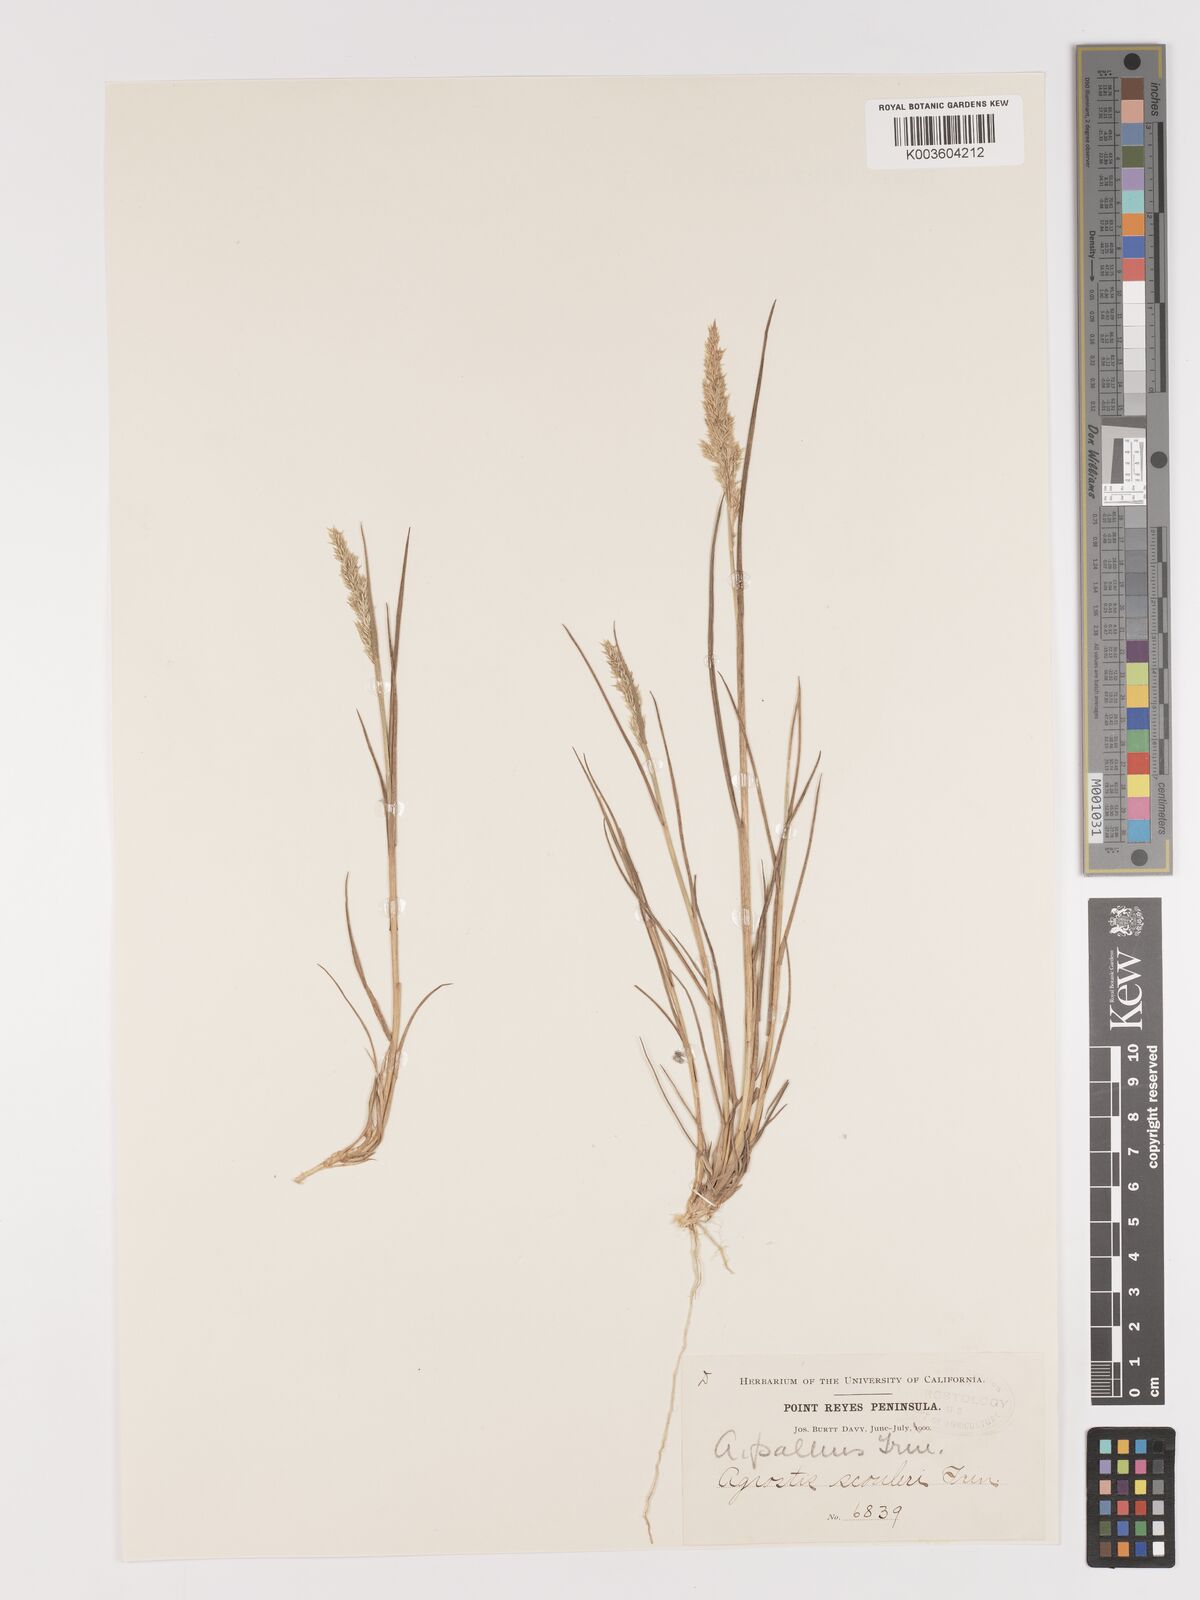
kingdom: Plantae
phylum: Tracheophyta
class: Liliopsida
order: Poales
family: Poaceae
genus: Agrostis
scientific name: Agrostis pallens
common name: Dune bent
